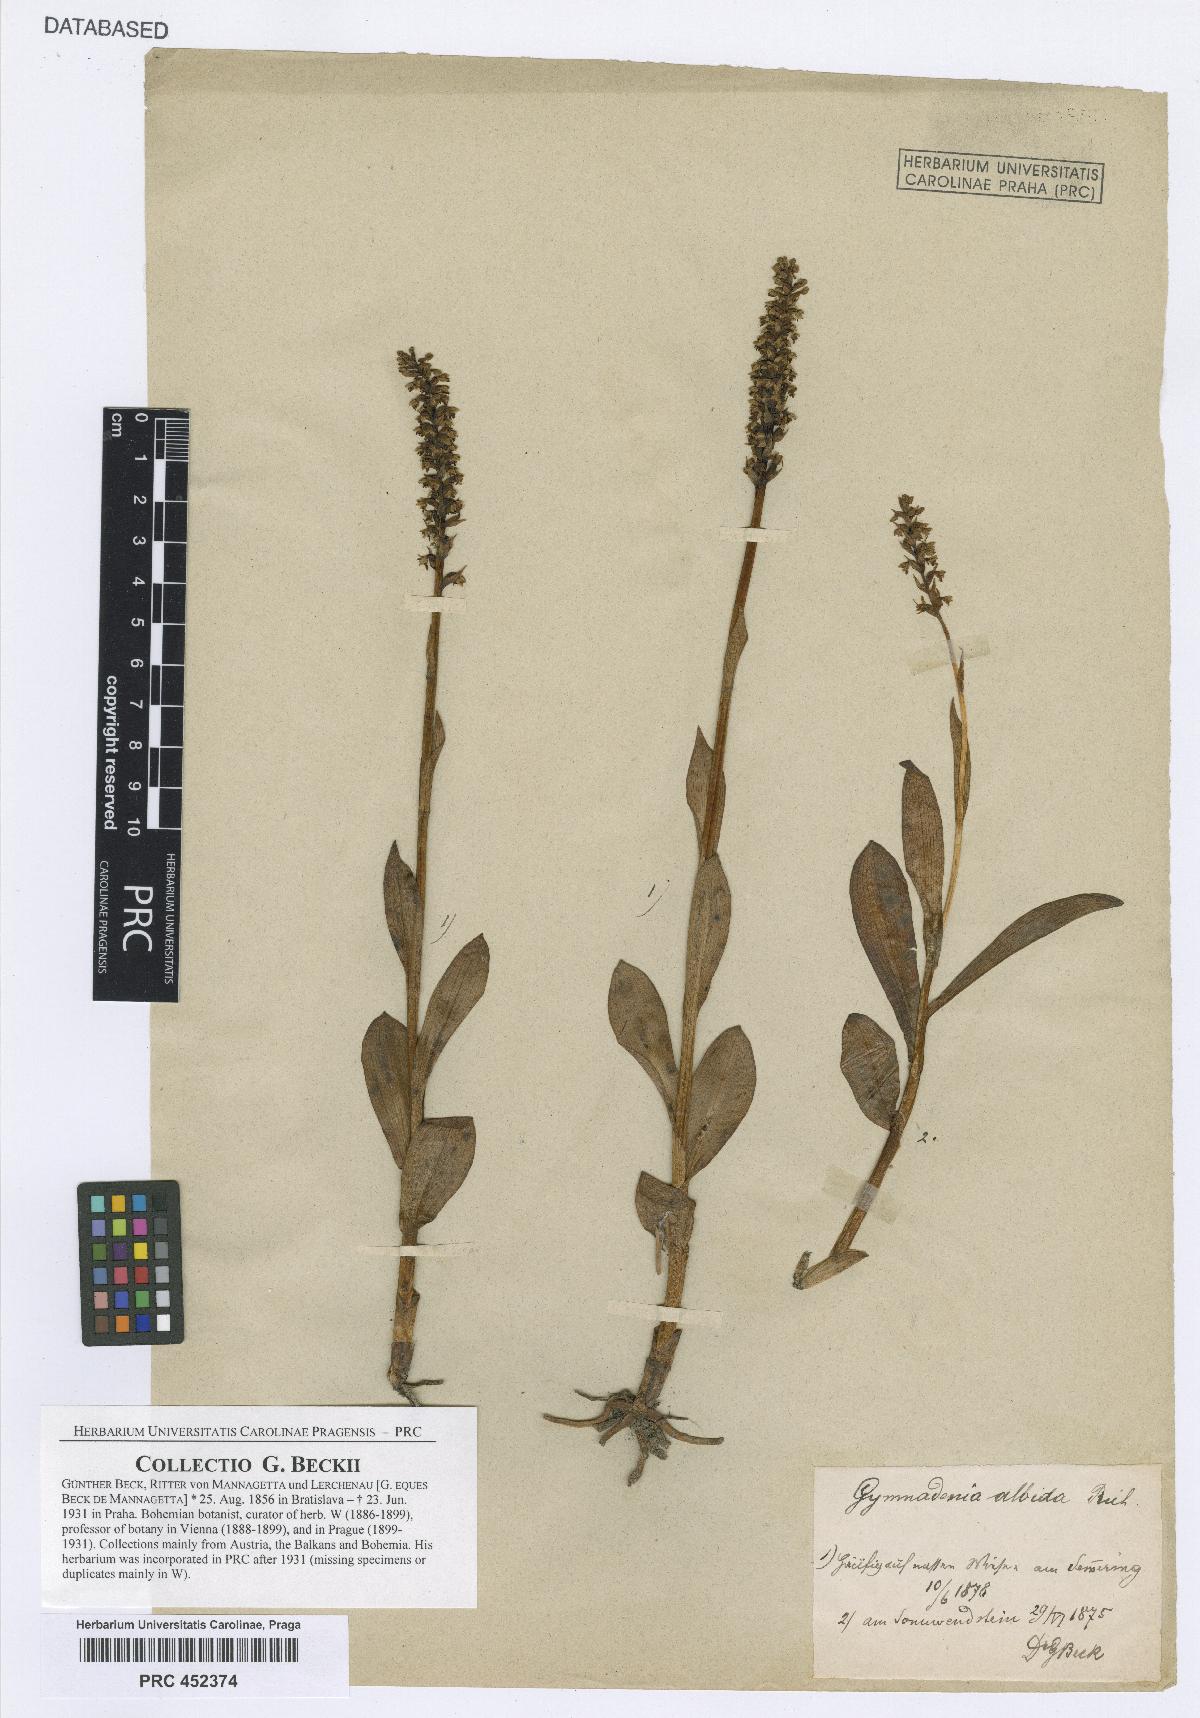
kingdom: Plantae
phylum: Tracheophyta
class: Liliopsida
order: Asparagales
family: Orchidaceae
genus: Pseudorchis
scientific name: Pseudorchis albida
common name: Small-white orchid
